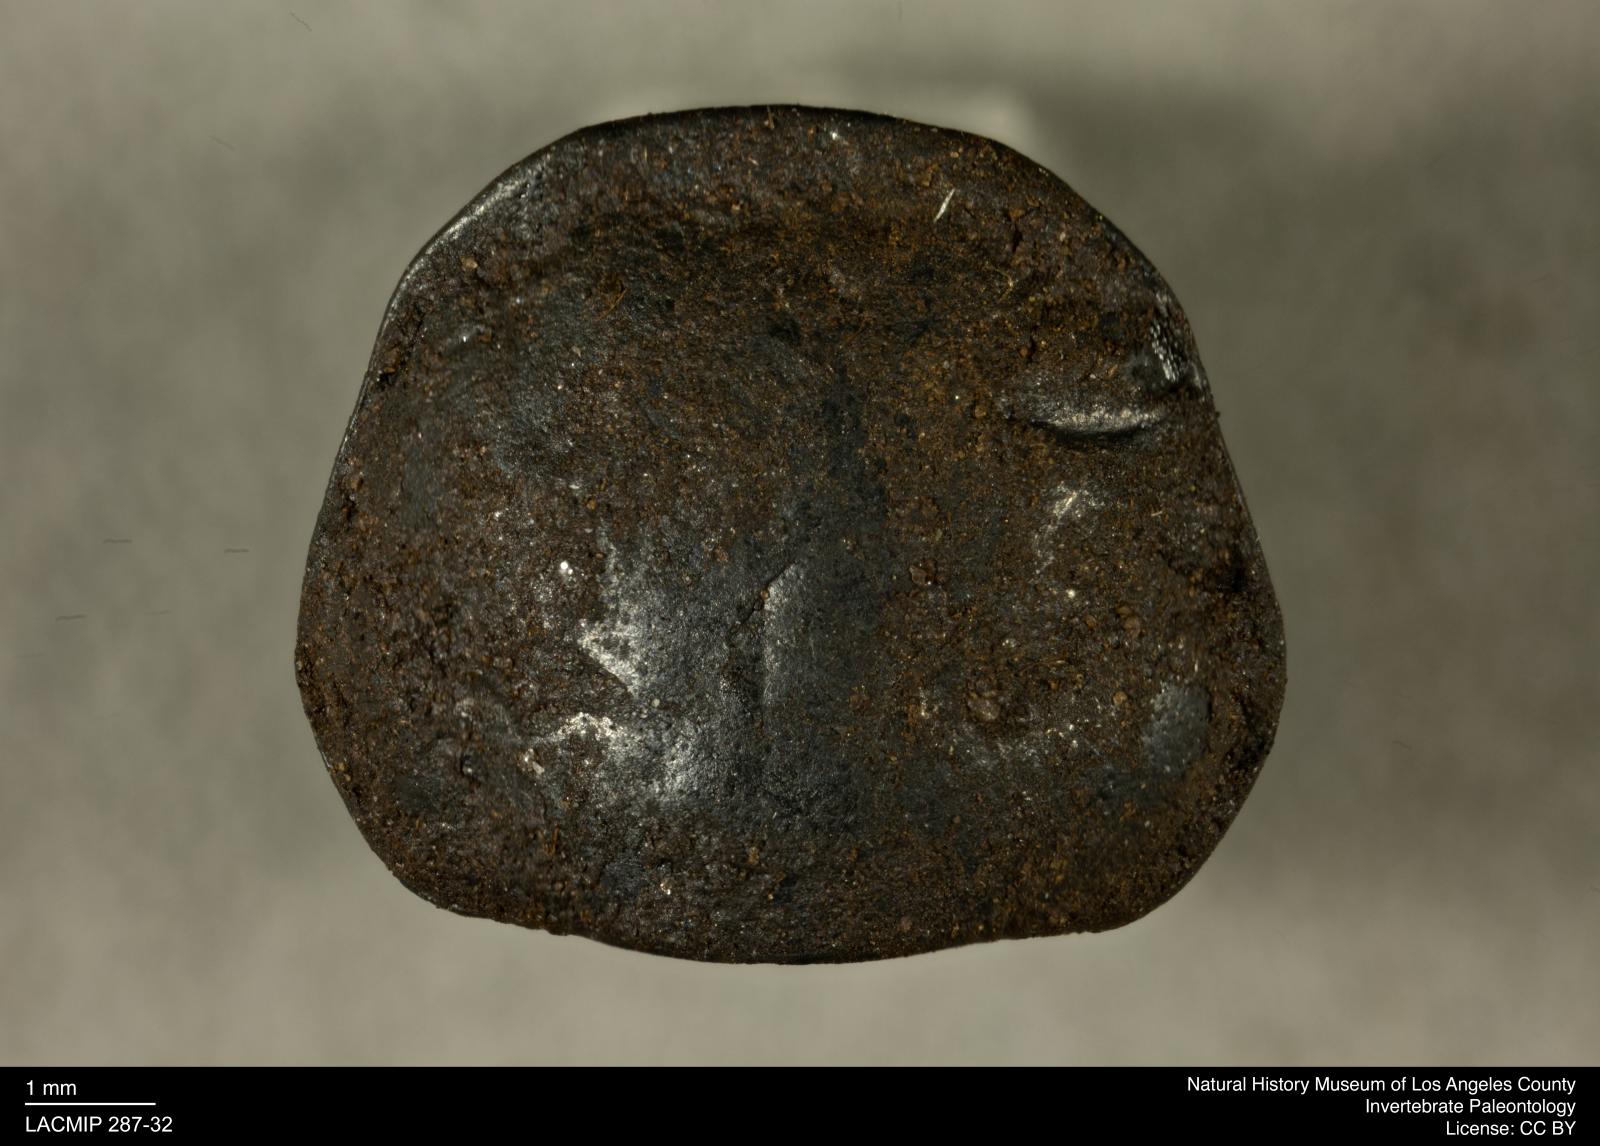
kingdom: Animalia
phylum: Arthropoda
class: Insecta
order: Coleoptera
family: Staphylinidae
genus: Nicrophorus
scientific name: Nicrophorus marginatus
